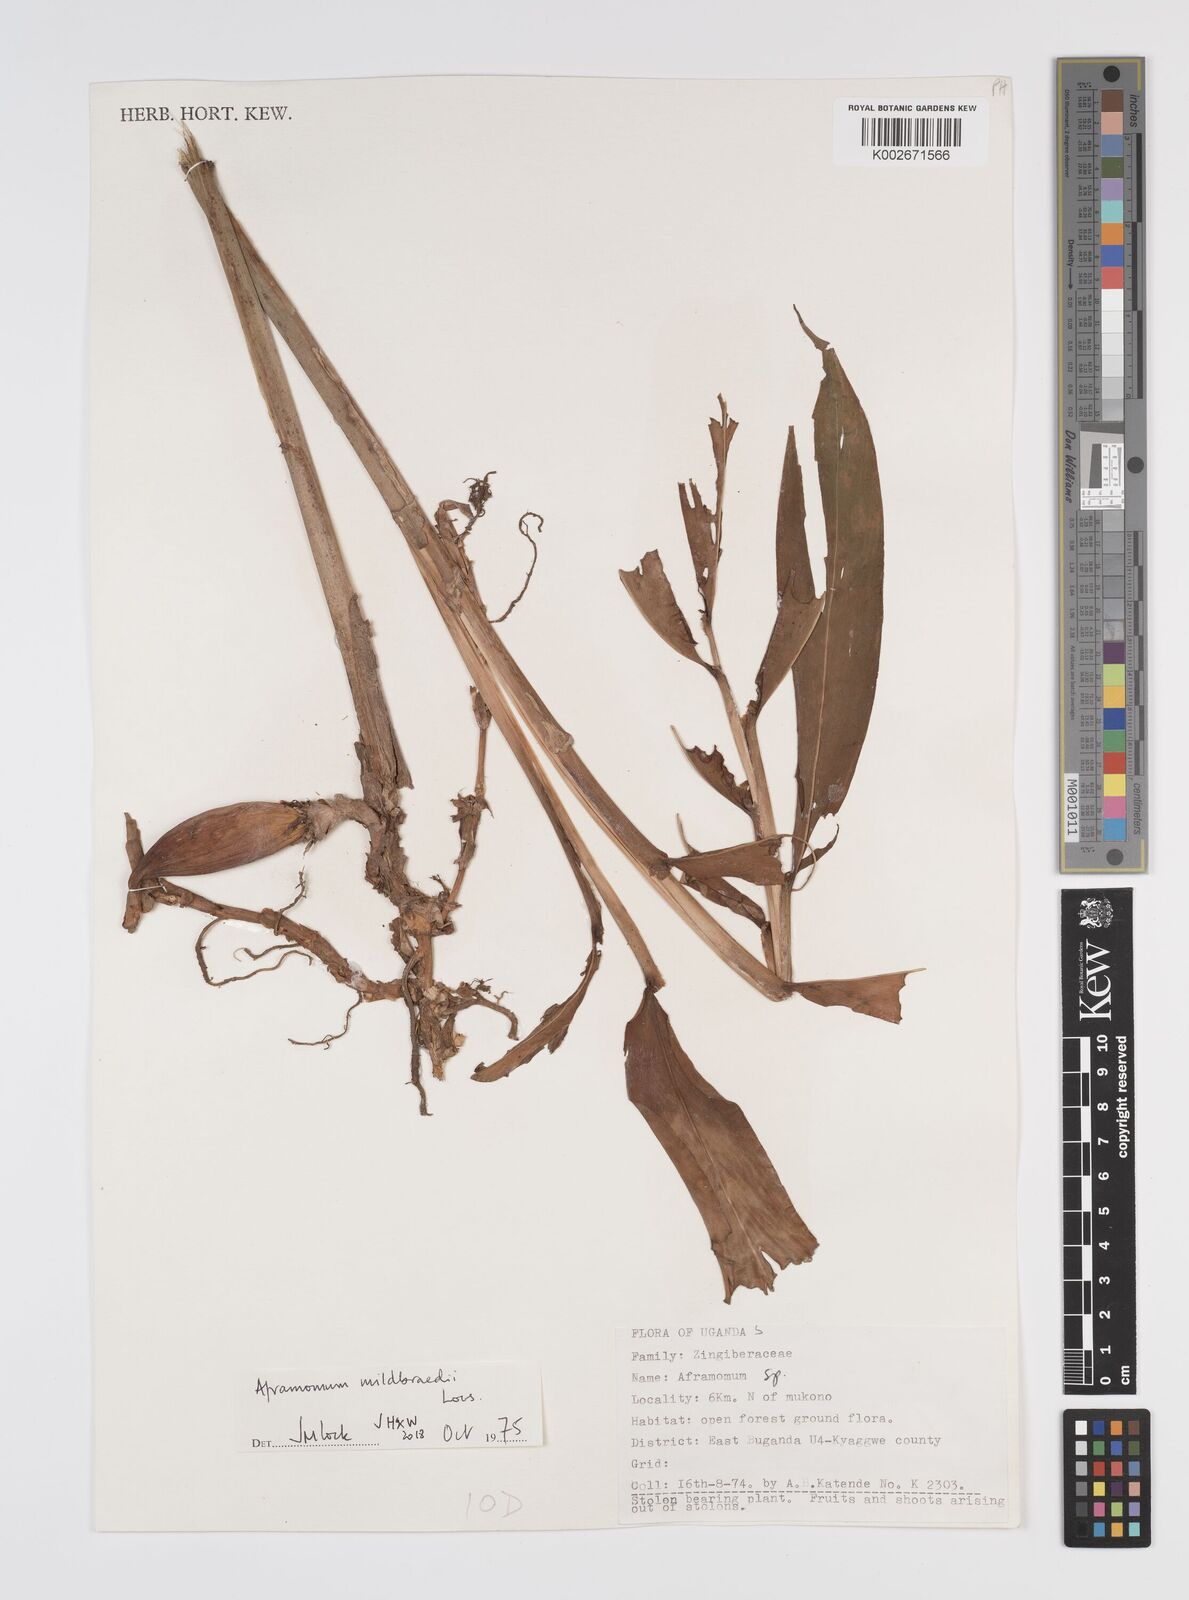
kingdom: Plantae
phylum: Tracheophyta
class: Liliopsida
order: Zingiberales
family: Zingiberaceae
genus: Aframomum
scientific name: Aframomum mildbraedii
